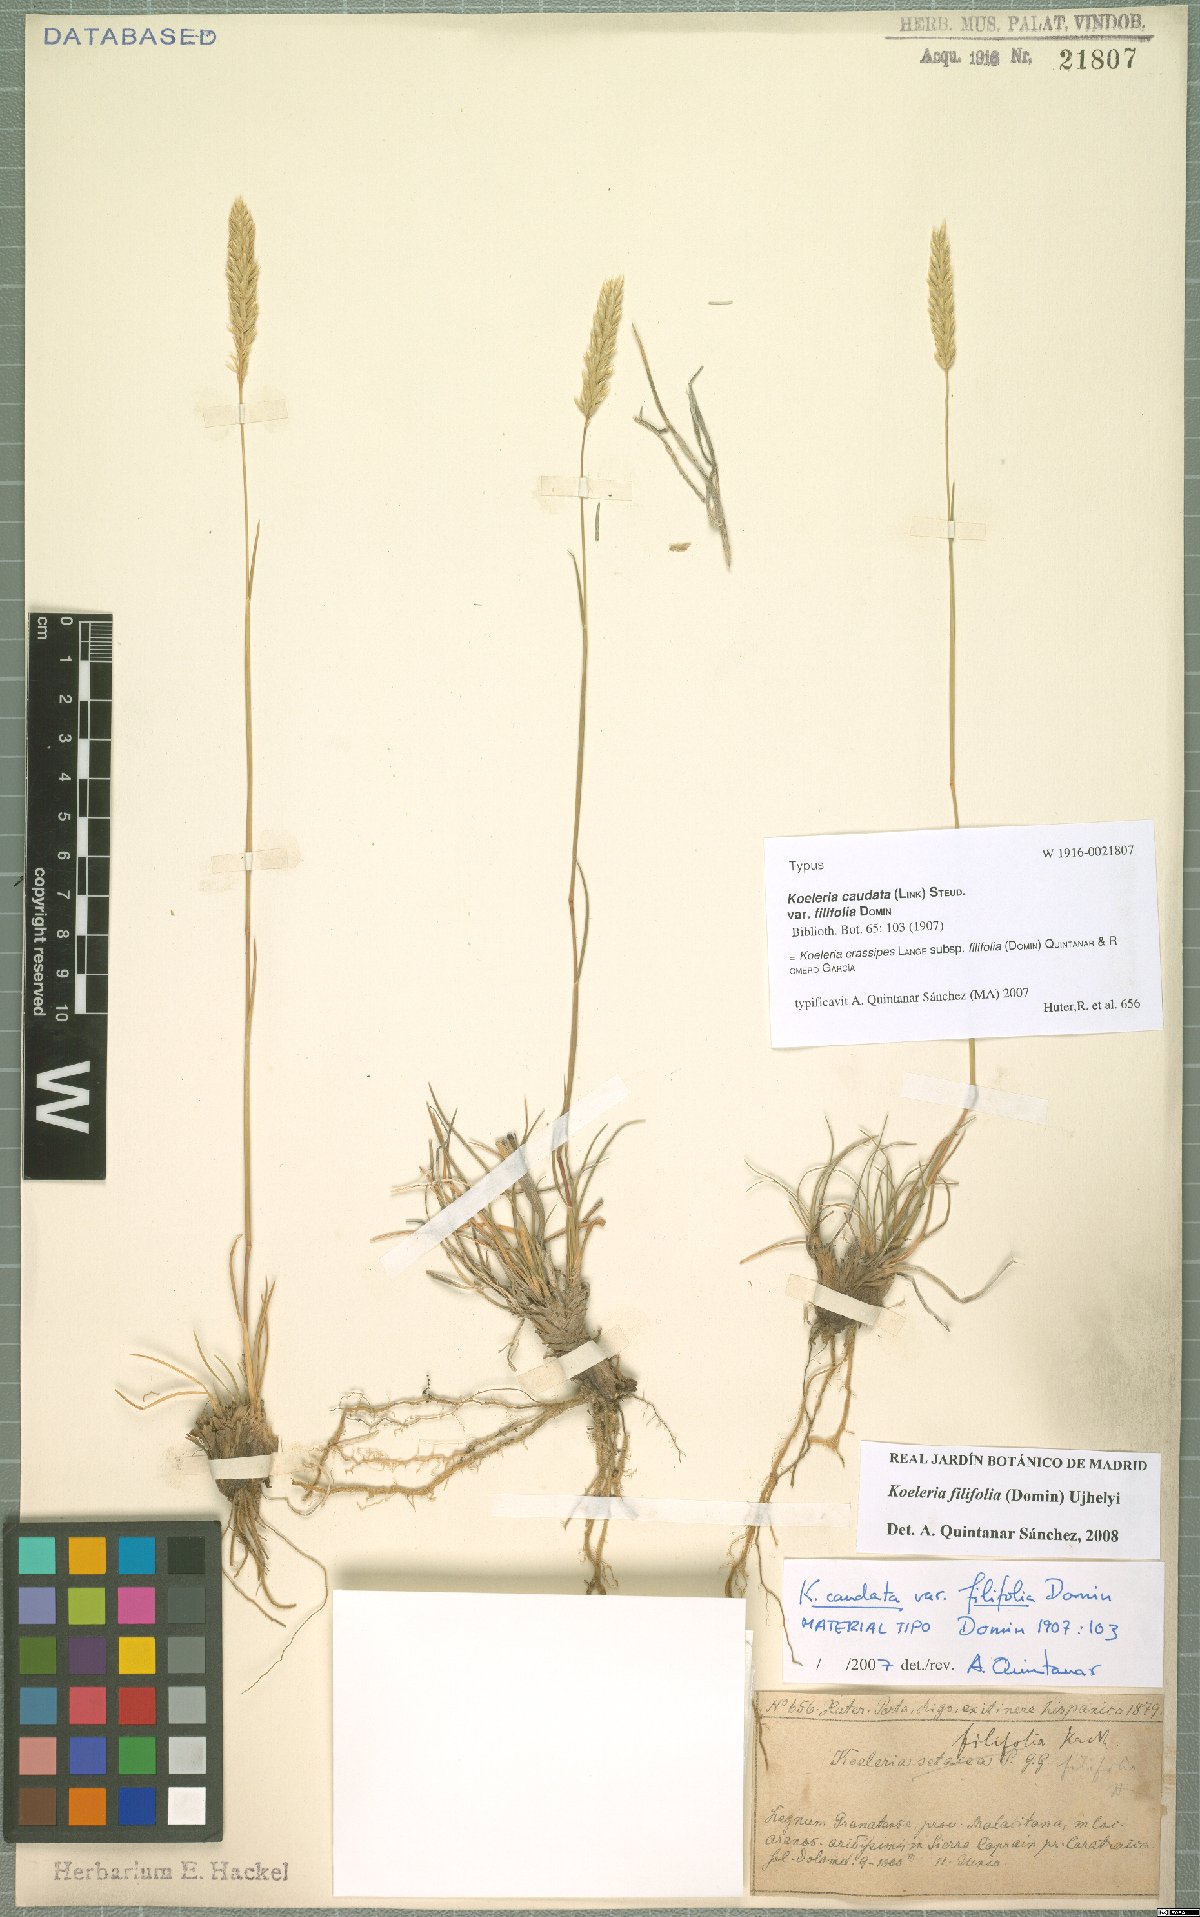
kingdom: Plantae
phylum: Tracheophyta
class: Liliopsida
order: Poales
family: Poaceae
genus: Koeleria
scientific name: Koeleria crassipes
